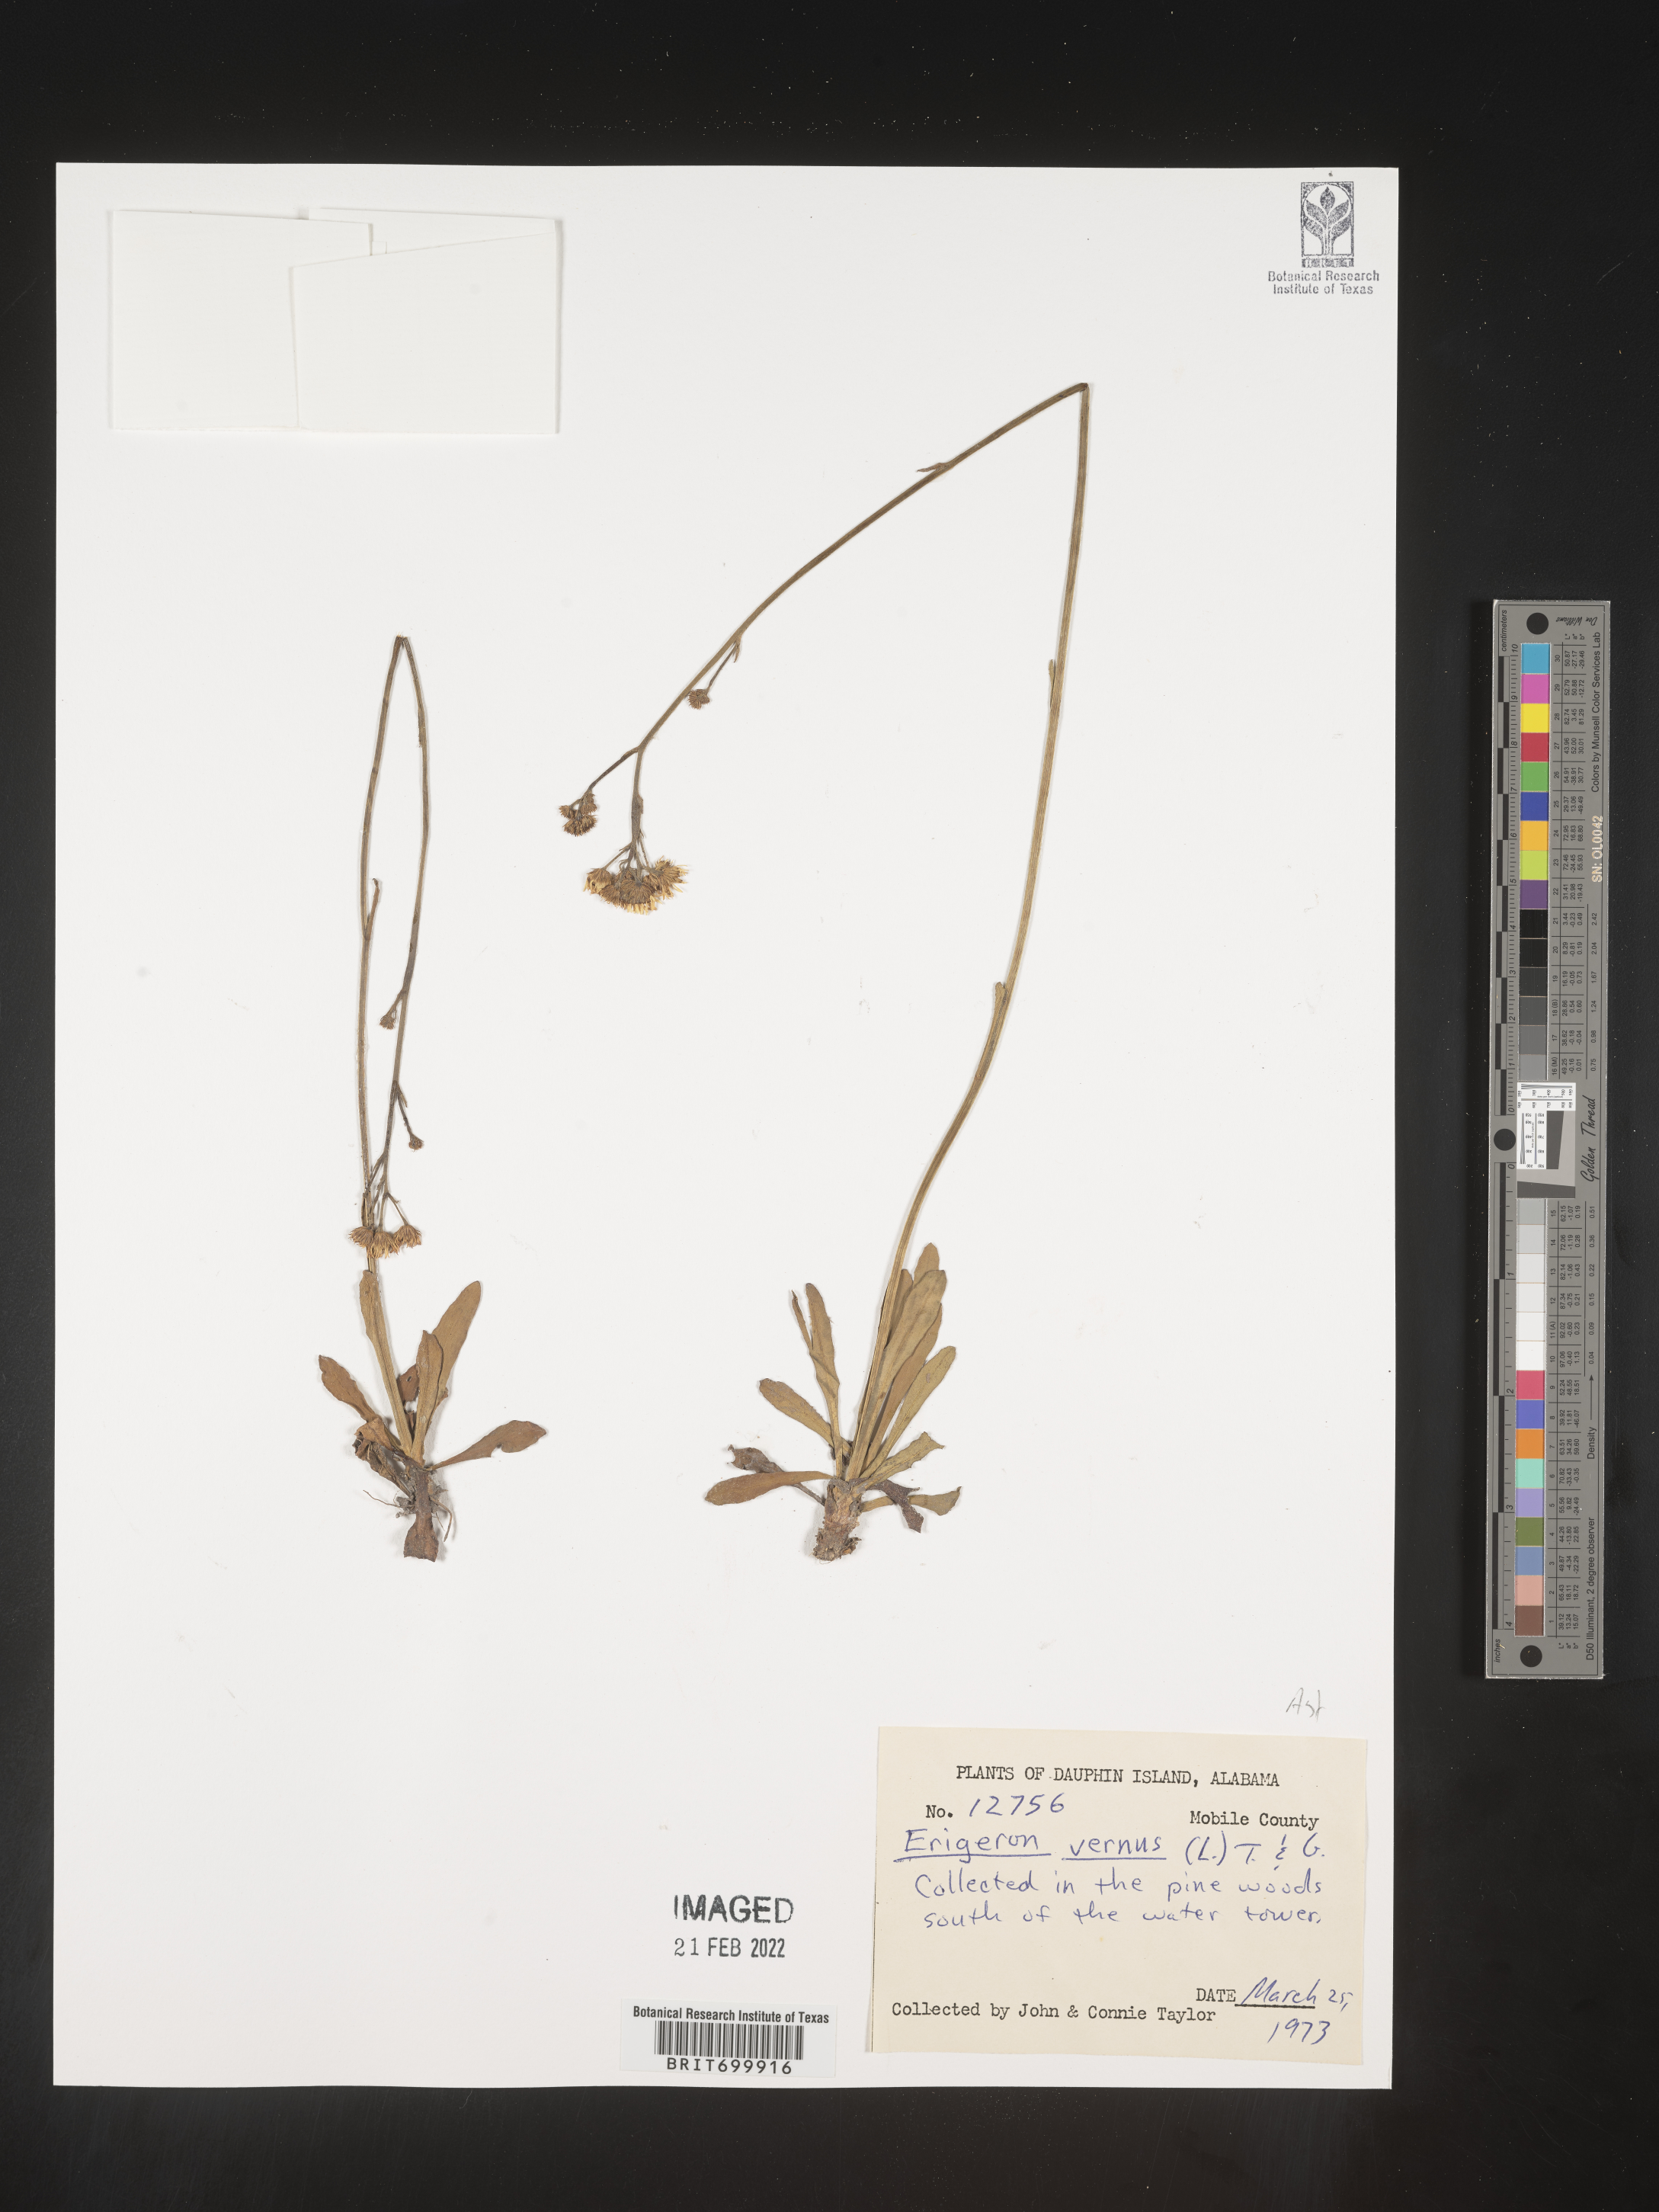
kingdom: Plantae
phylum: Tracheophyta
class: Magnoliopsida
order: Asterales
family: Asteraceae
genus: Erigeron
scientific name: Erigeron vernus
